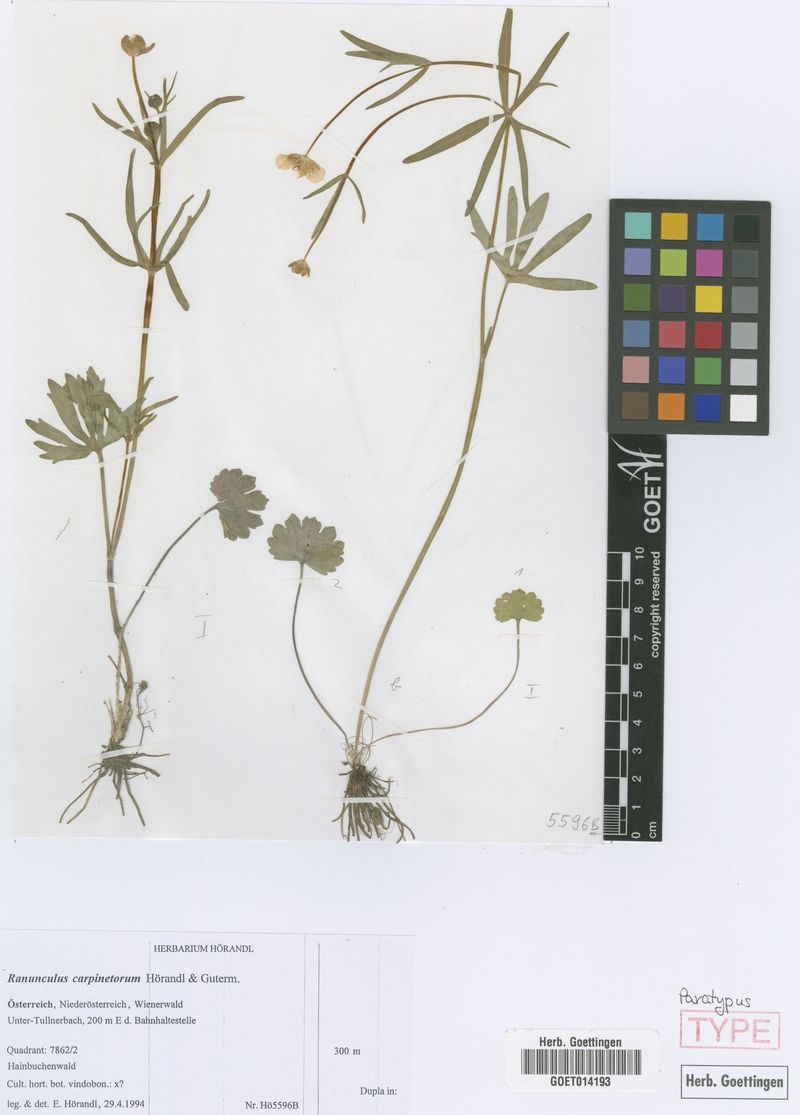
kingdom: Plantae
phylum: Tracheophyta
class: Magnoliopsida
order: Ranunculales
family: Ranunculaceae
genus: Ranunculus
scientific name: Ranunculus carpinetorum
